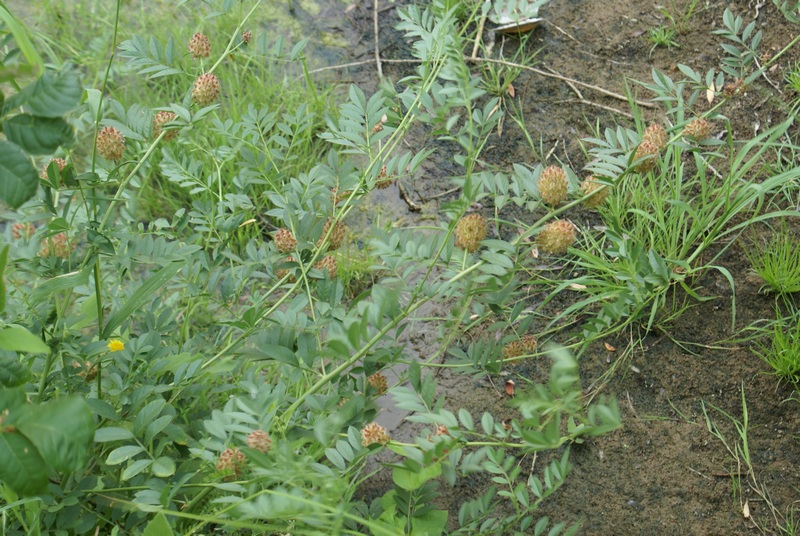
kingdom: Plantae
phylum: Tracheophyta
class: Magnoliopsida
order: Fabales
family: Fabaceae
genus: Glycyrrhiza
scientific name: Glycyrrhiza echinata
